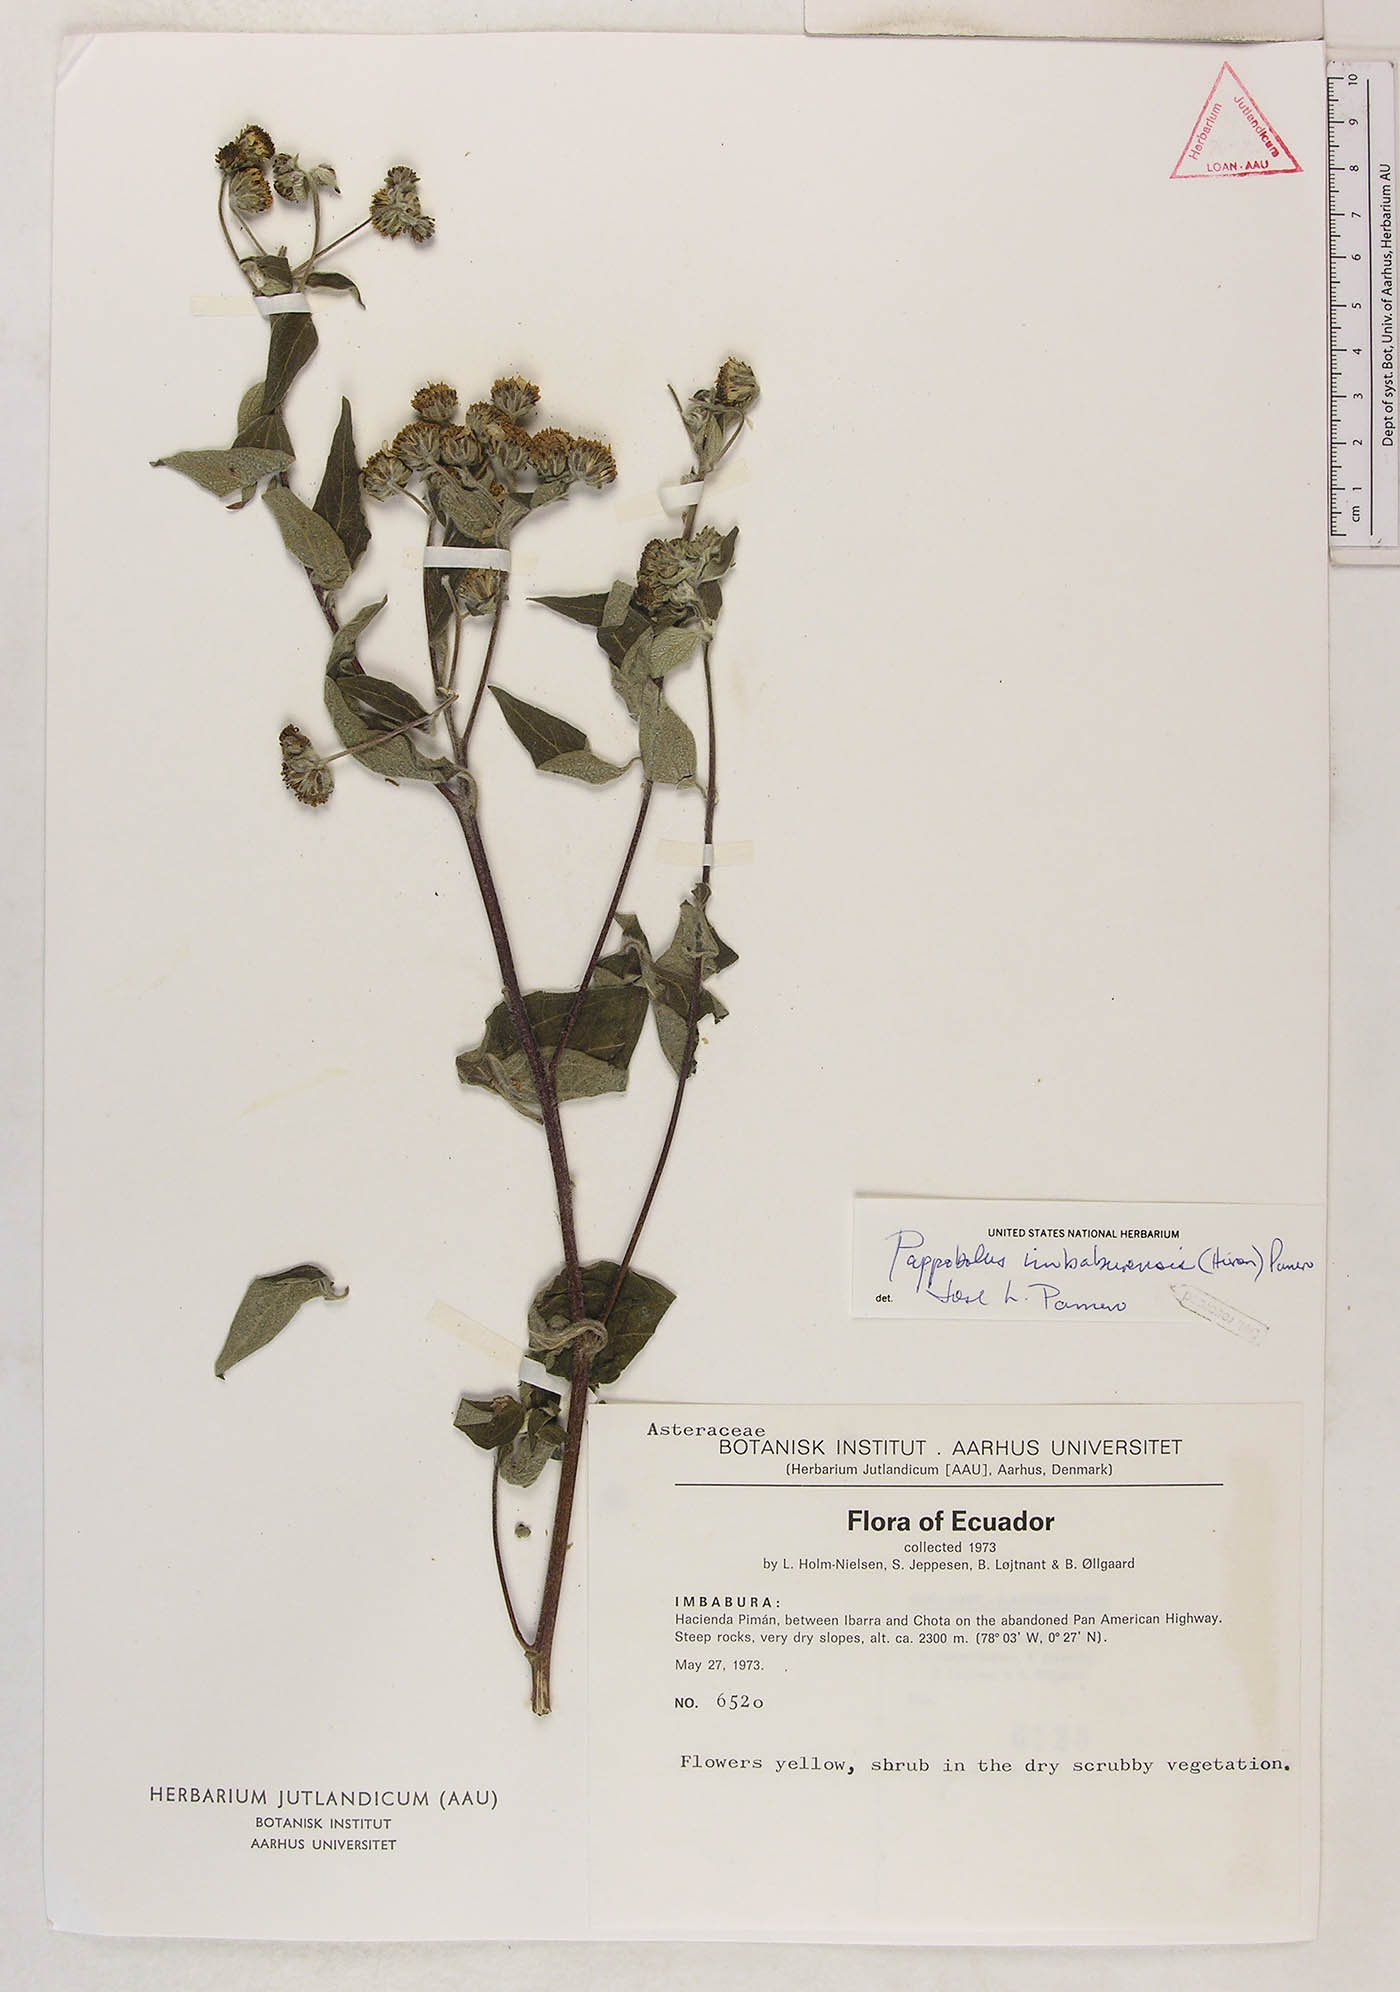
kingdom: Plantae
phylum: Tracheophyta
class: Magnoliopsida
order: Asterales
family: Asteraceae
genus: Pappobolus
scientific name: Pappobolus imbaburensis
